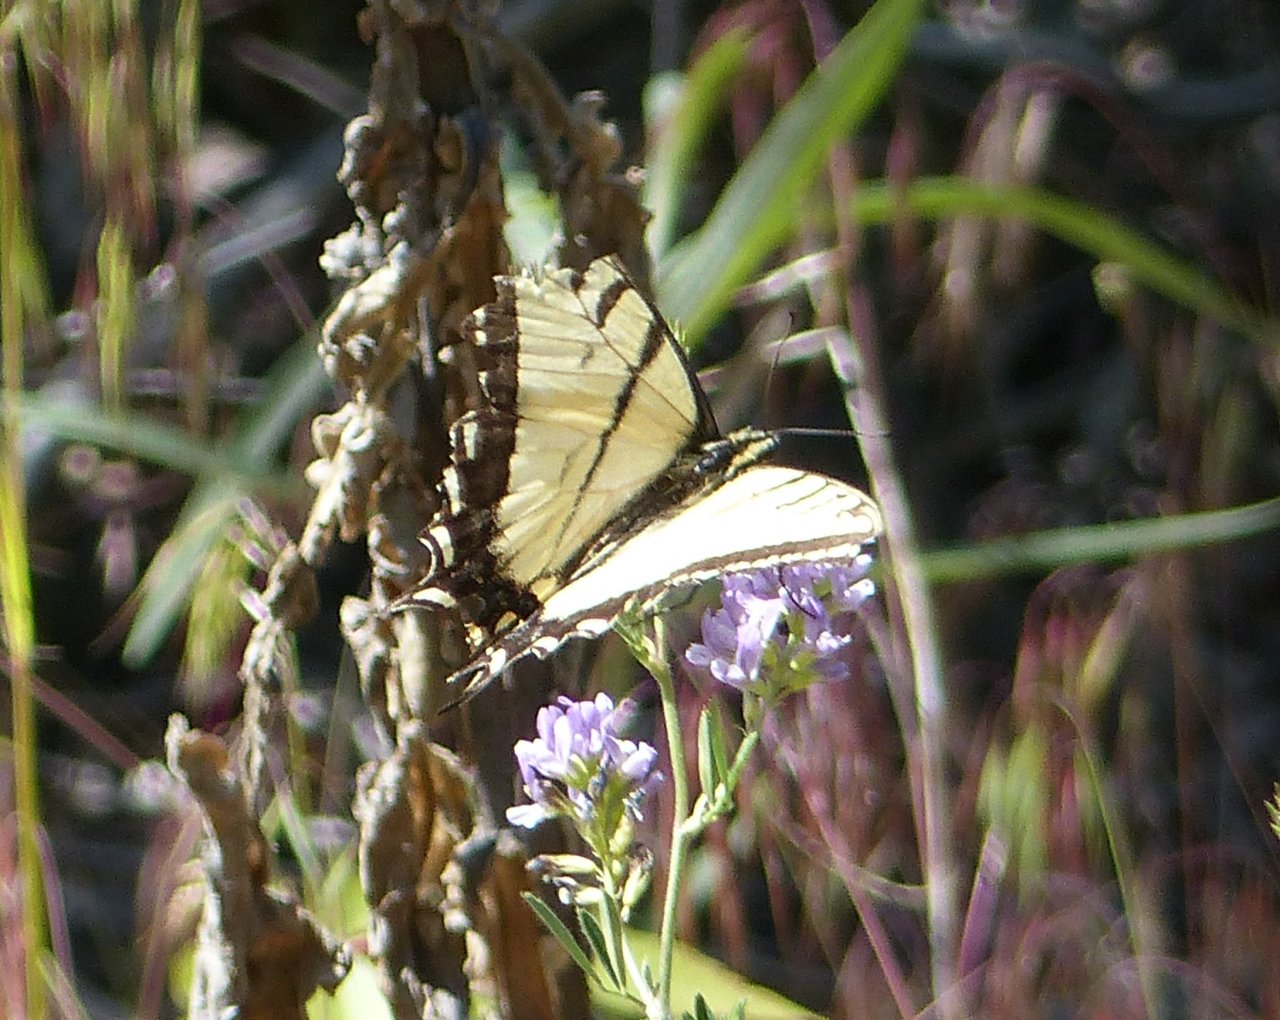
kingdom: Animalia
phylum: Arthropoda
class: Insecta
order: Lepidoptera
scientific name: Lepidoptera
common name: Butterflies
